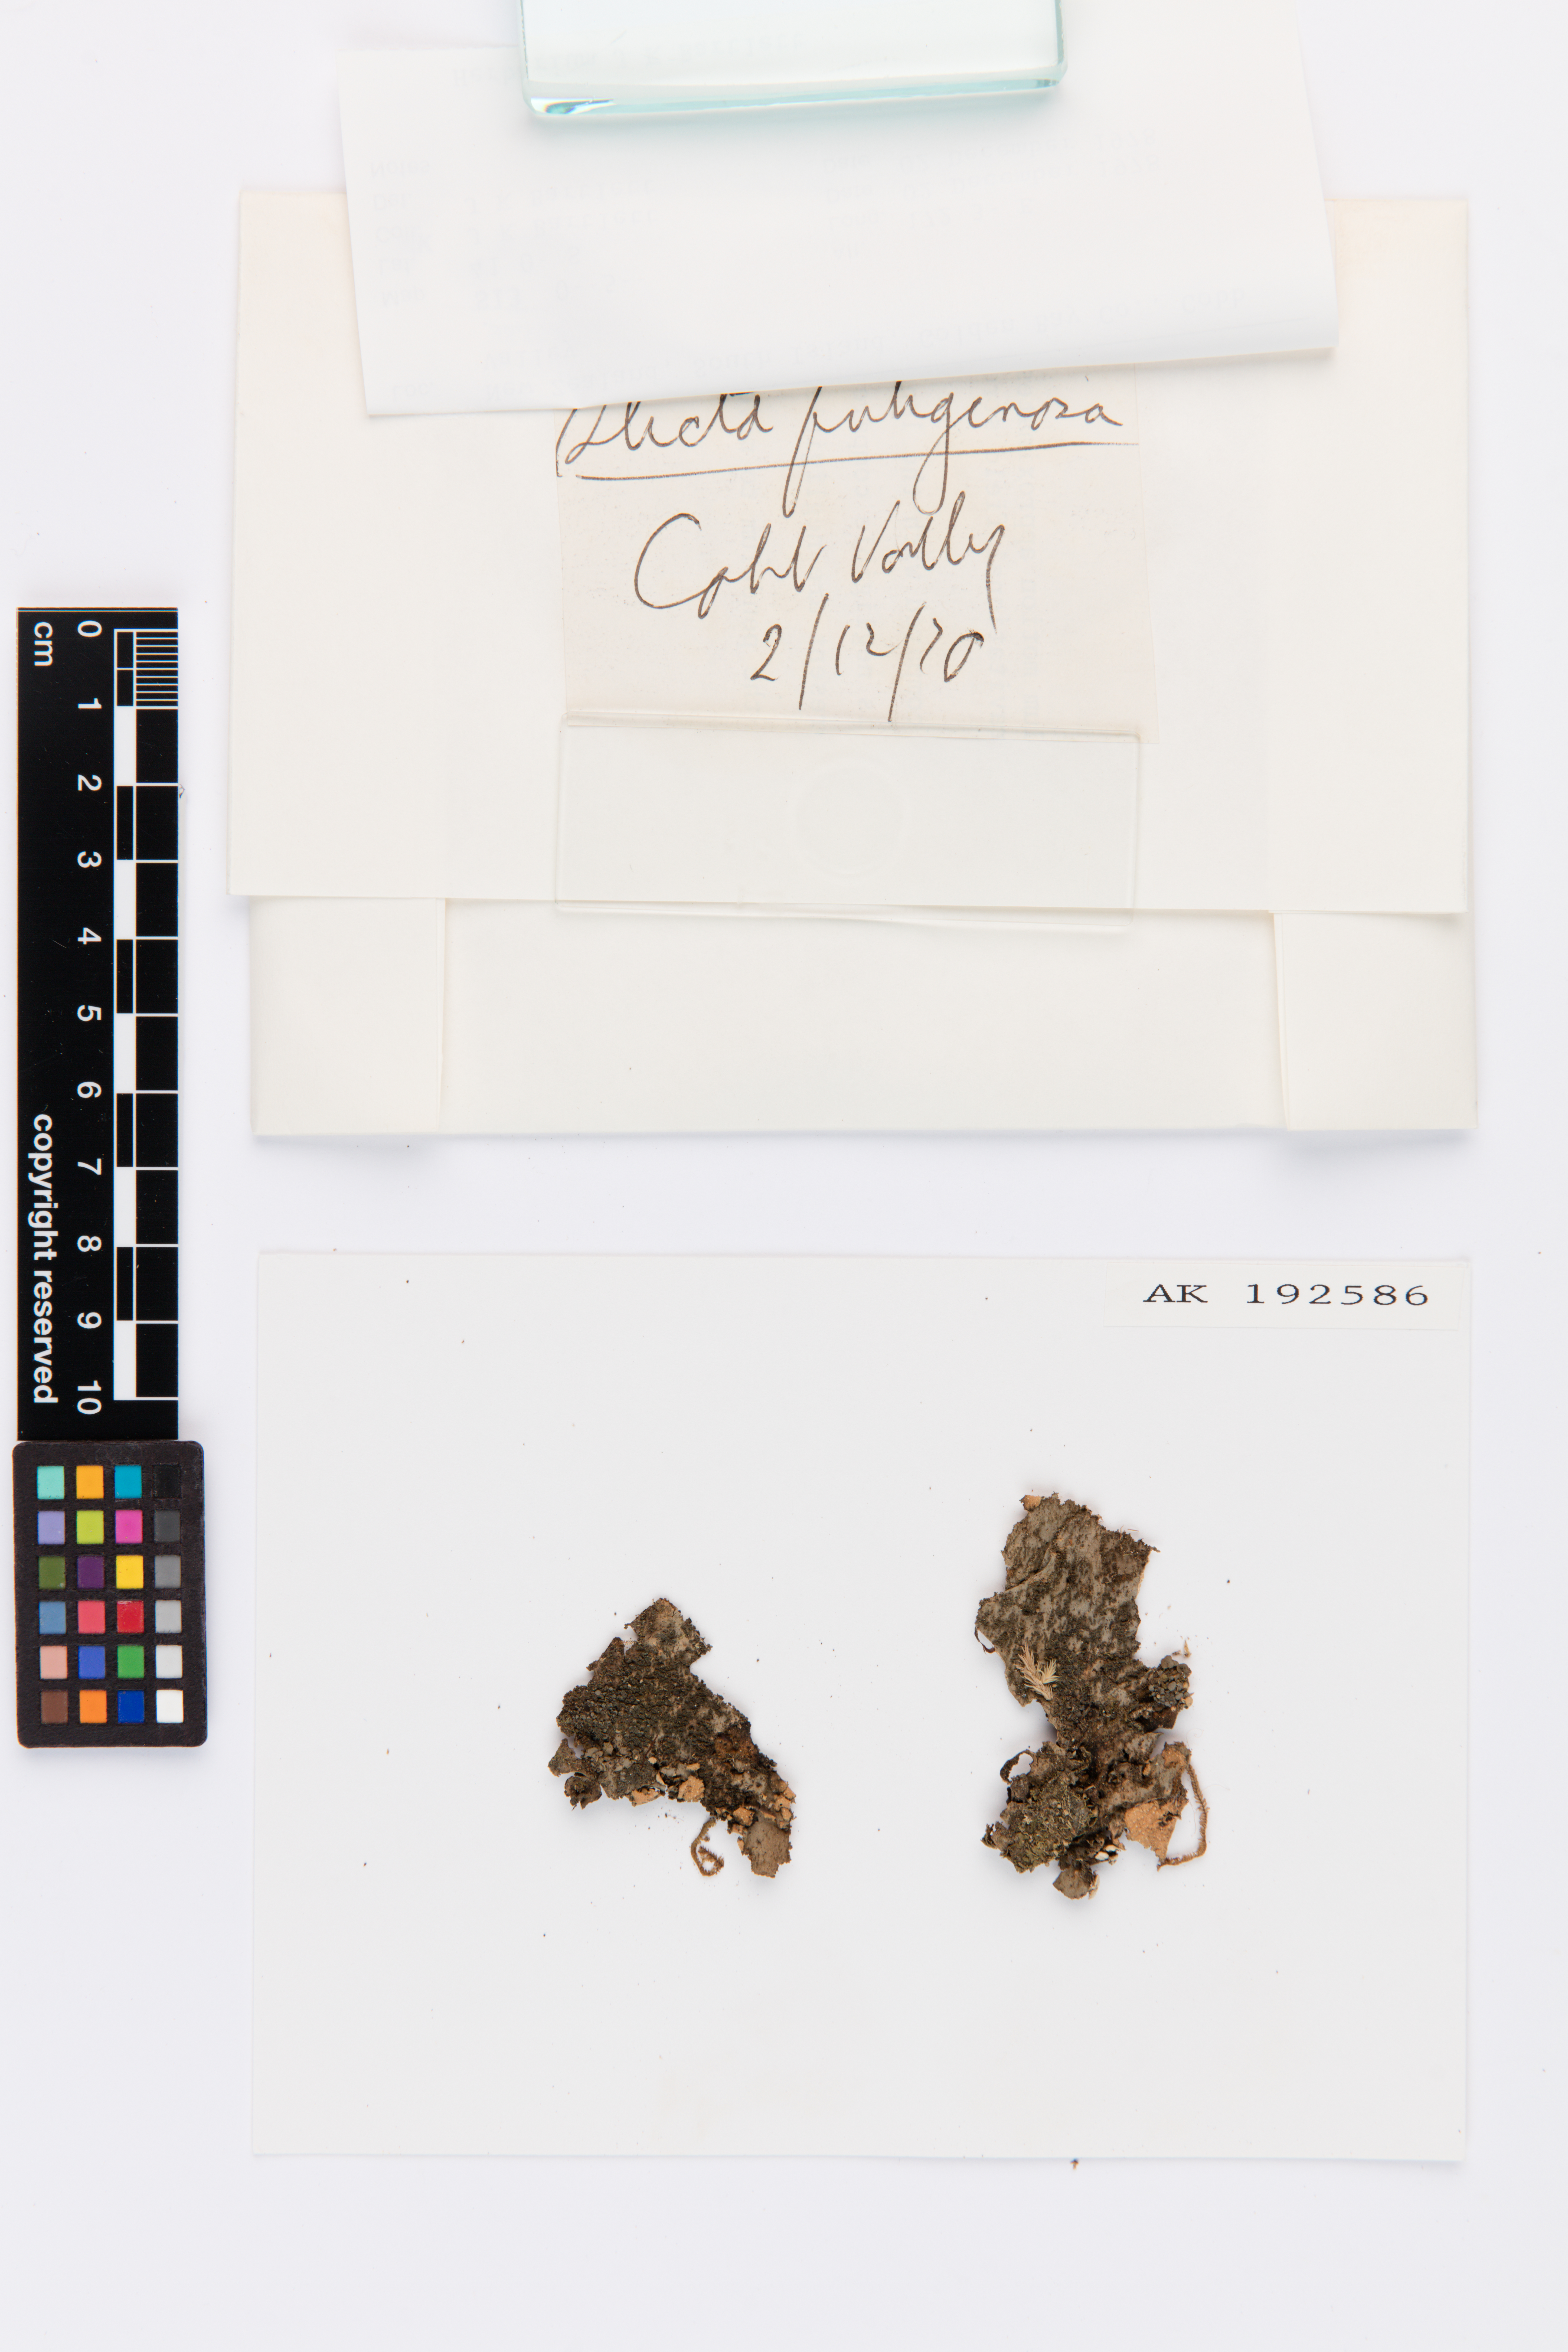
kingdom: Fungi
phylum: Ascomycota
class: Lecanoromycetes
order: Peltigerales
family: Lobariaceae
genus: Sticta
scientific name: Sticta fuliginosa
